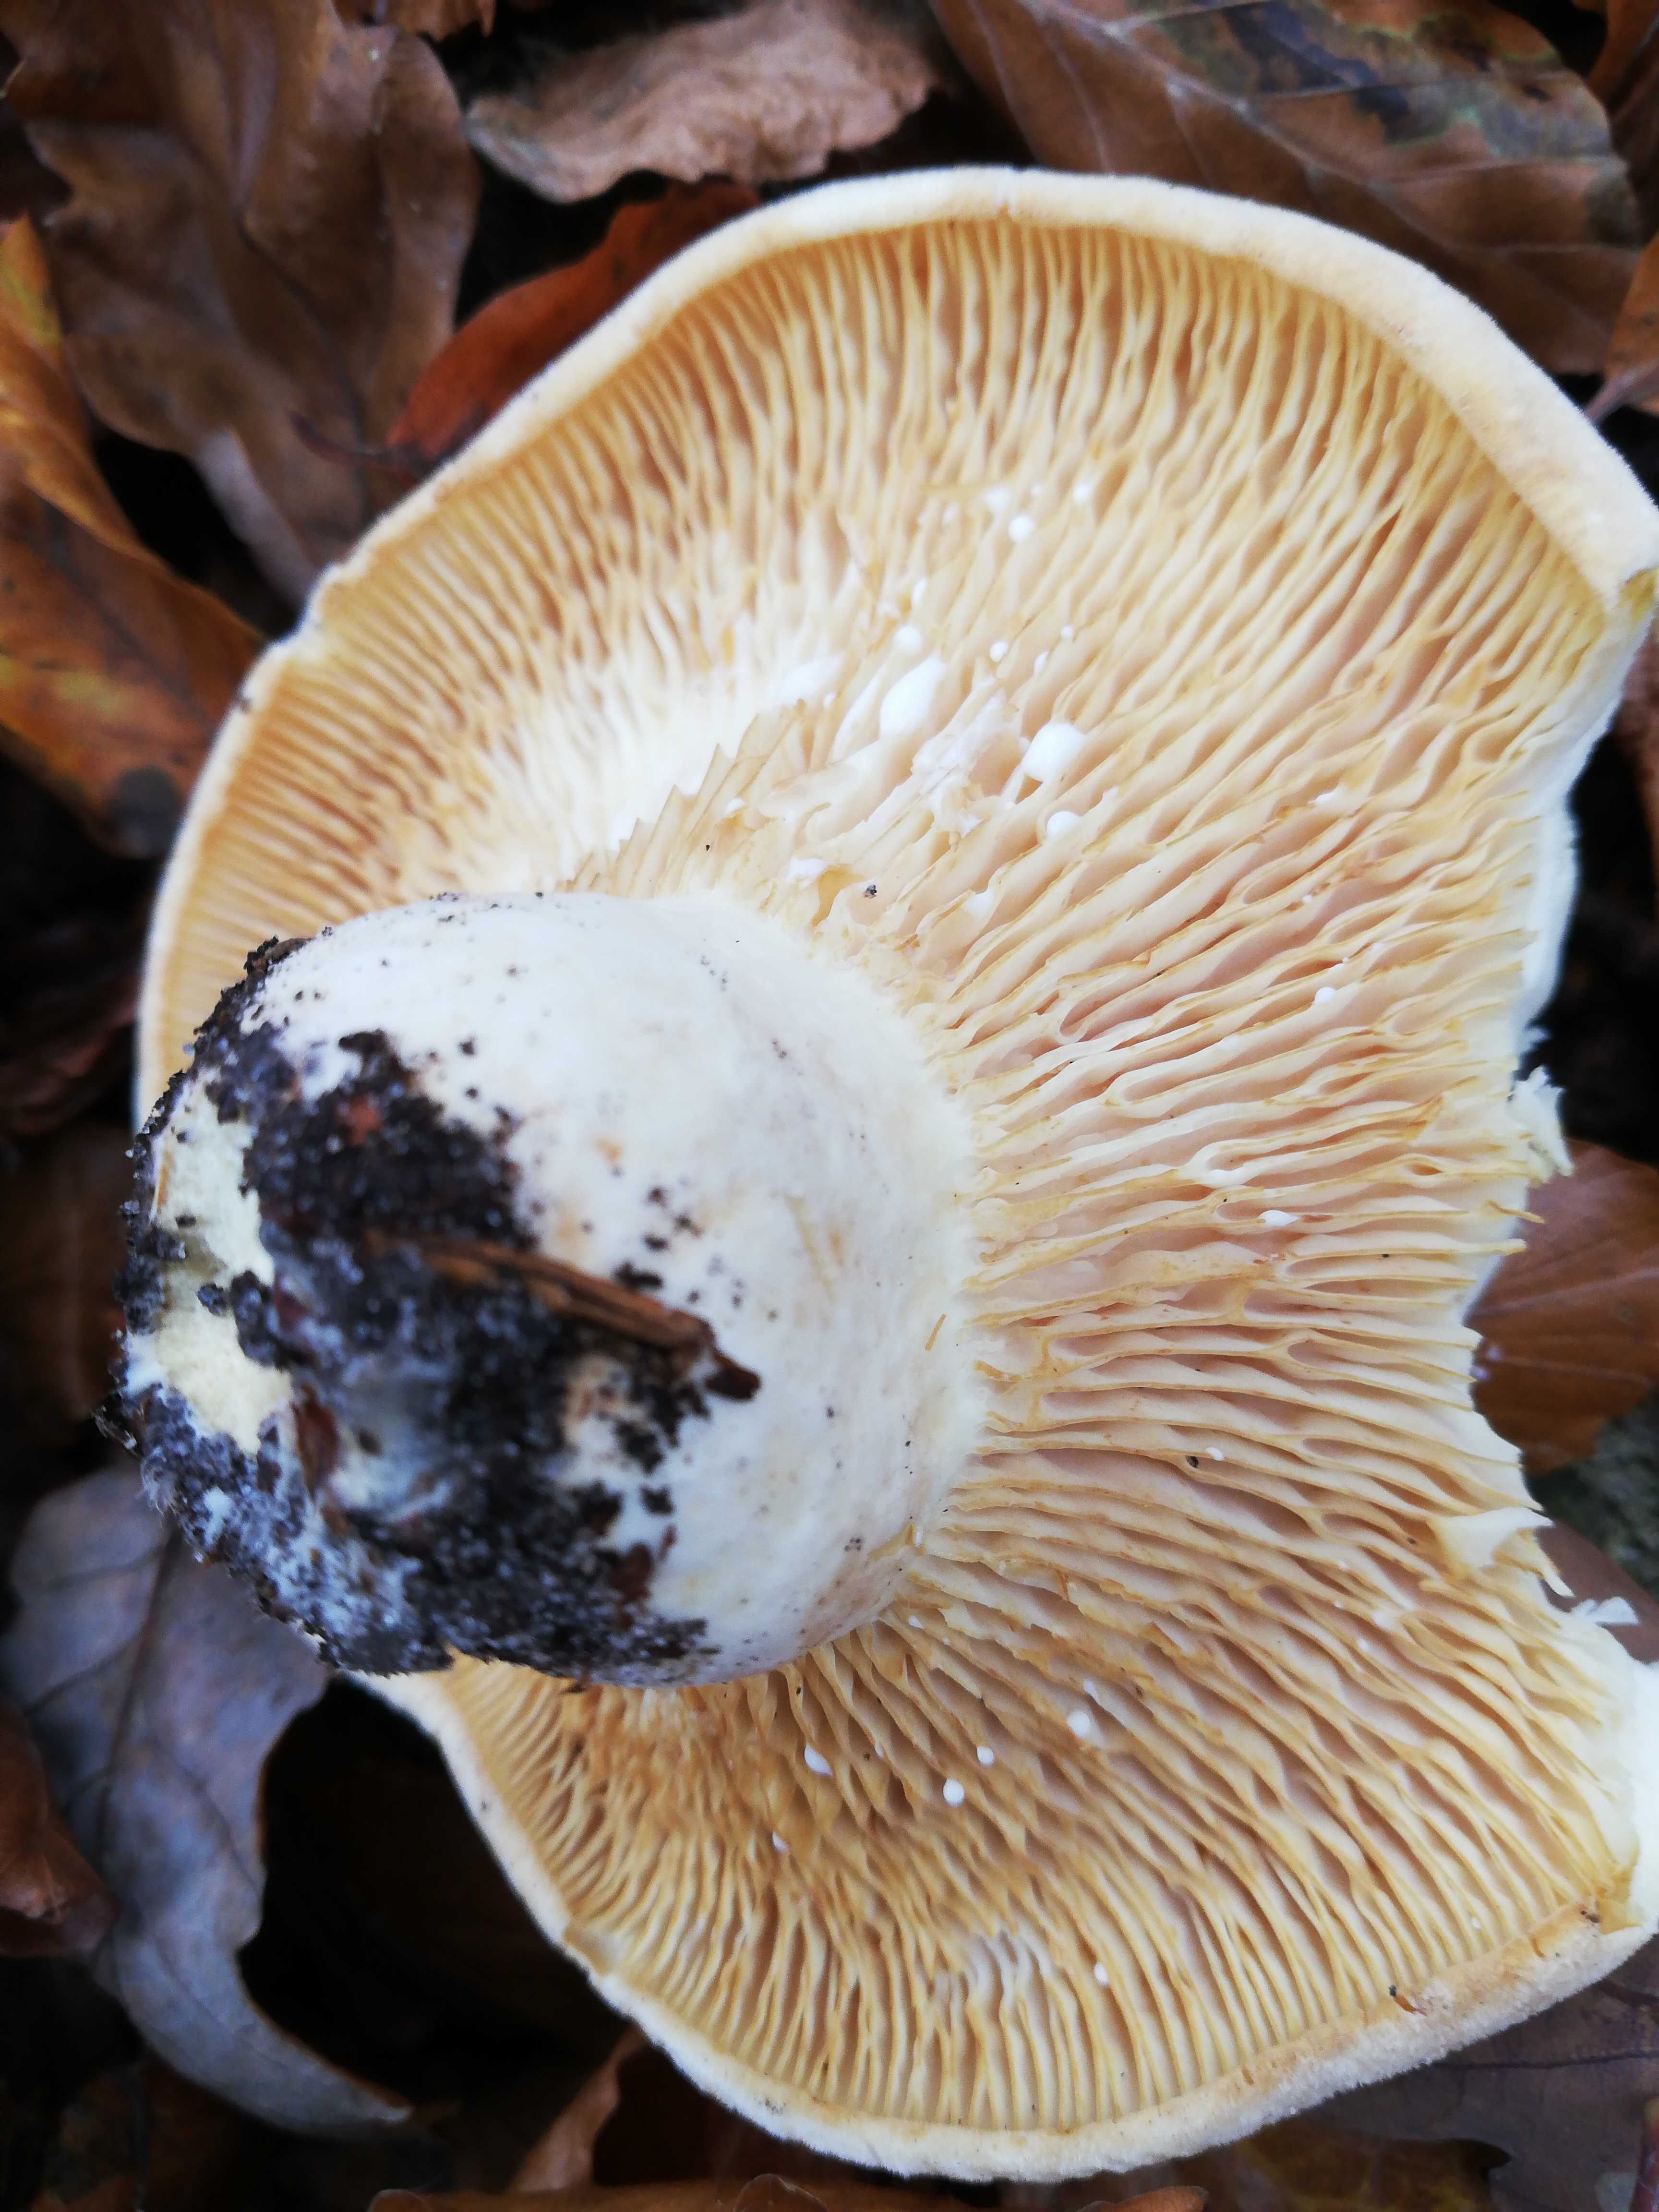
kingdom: Fungi
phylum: Basidiomycota
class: Agaricomycetes
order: Russulales
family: Russulaceae
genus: Lactifluus
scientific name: Lactifluus
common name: mælkehat
